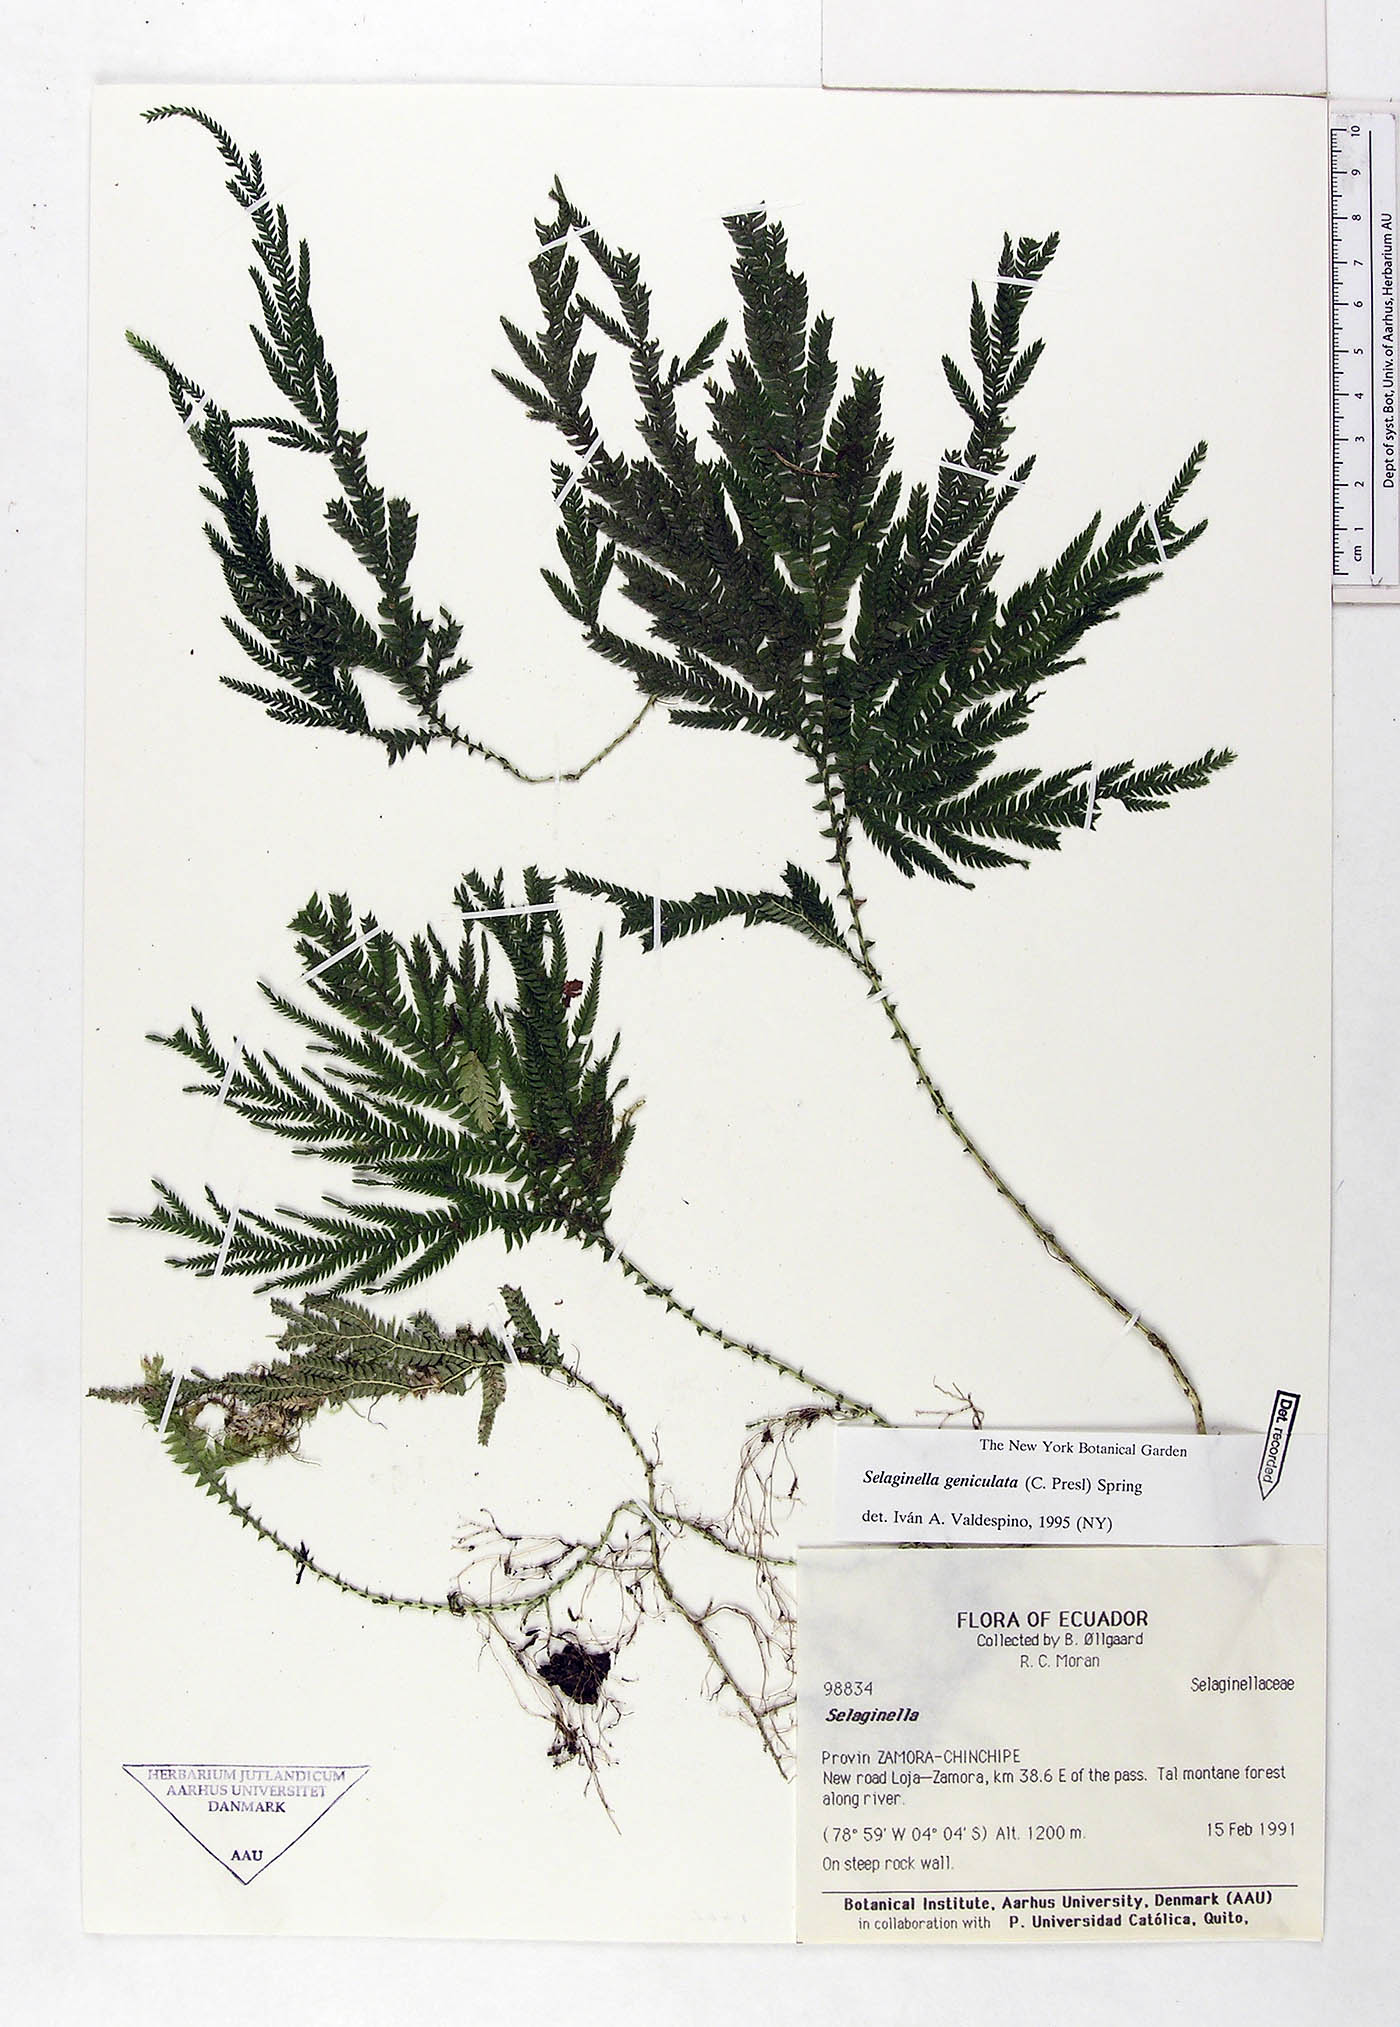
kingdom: Plantae
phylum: Tracheophyta
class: Lycopodiopsida
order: Selaginellales
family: Selaginellaceae
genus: Selaginella
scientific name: Selaginella geniculata
